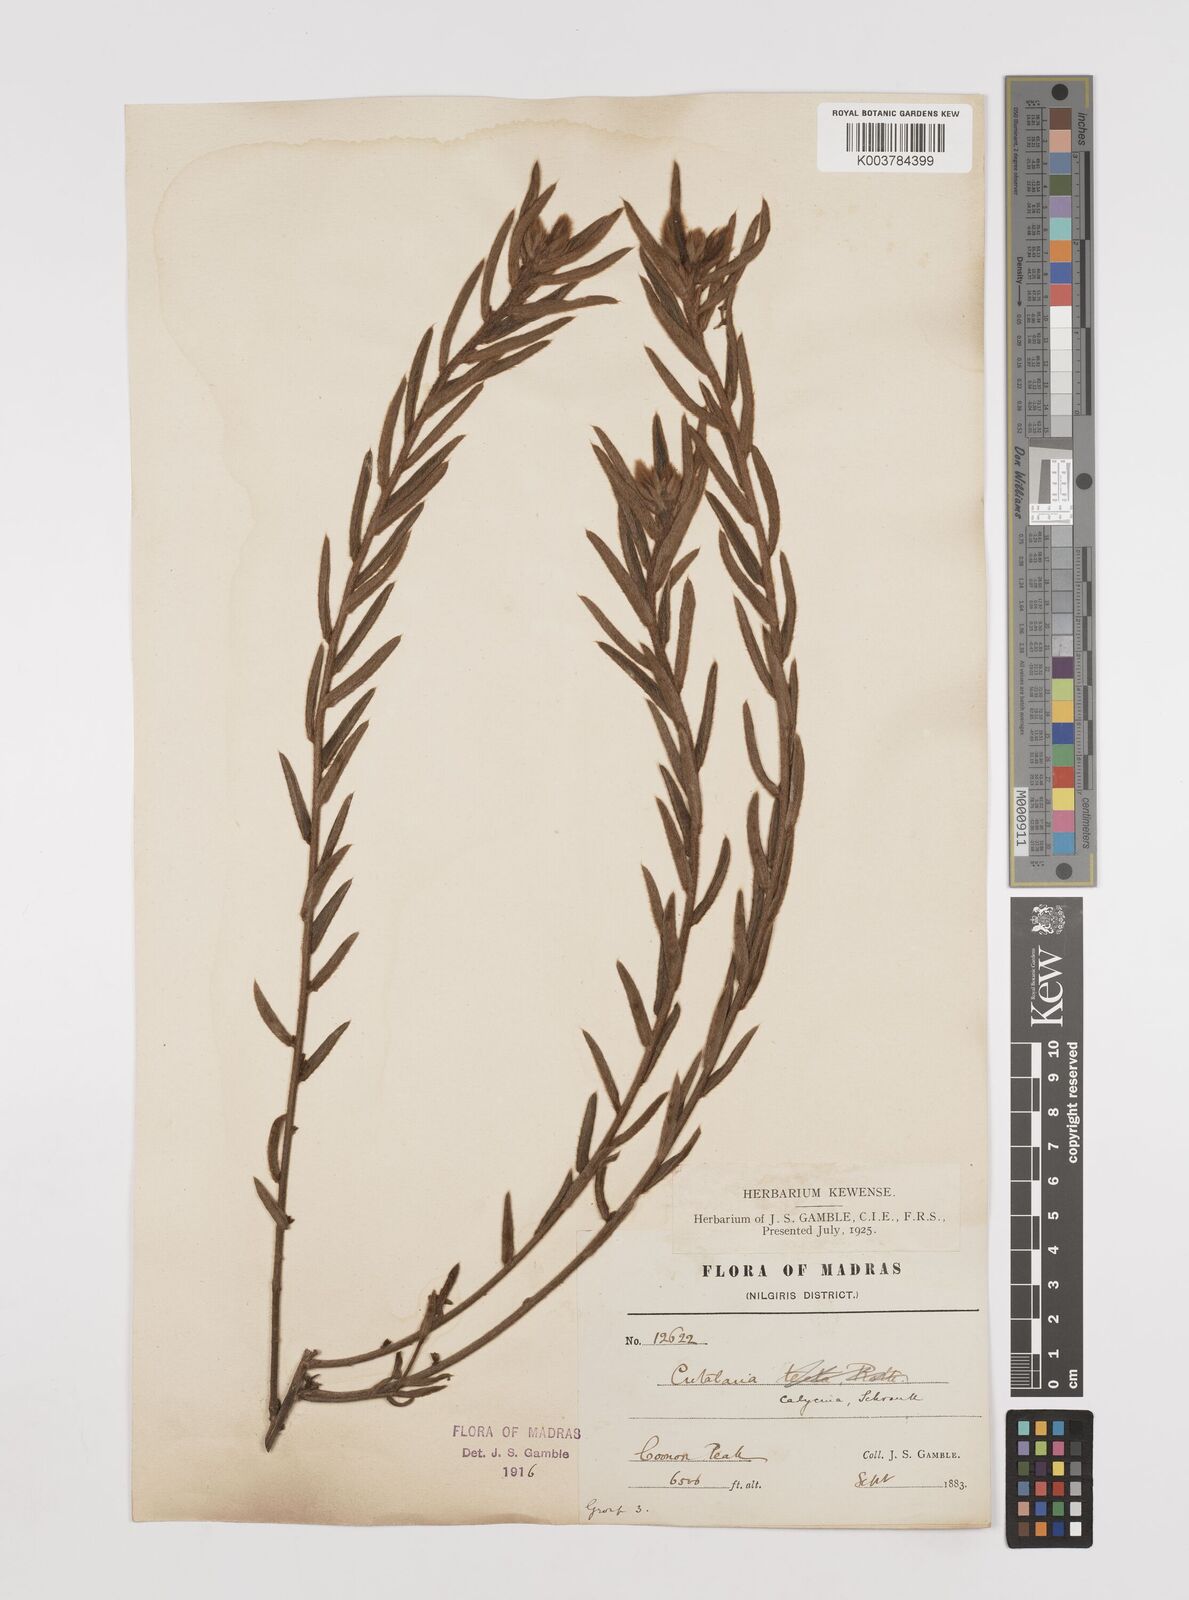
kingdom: Plantae
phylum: Tracheophyta
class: Magnoliopsida
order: Fabales
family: Fabaceae
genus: Crotalaria
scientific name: Crotalaria calycina
